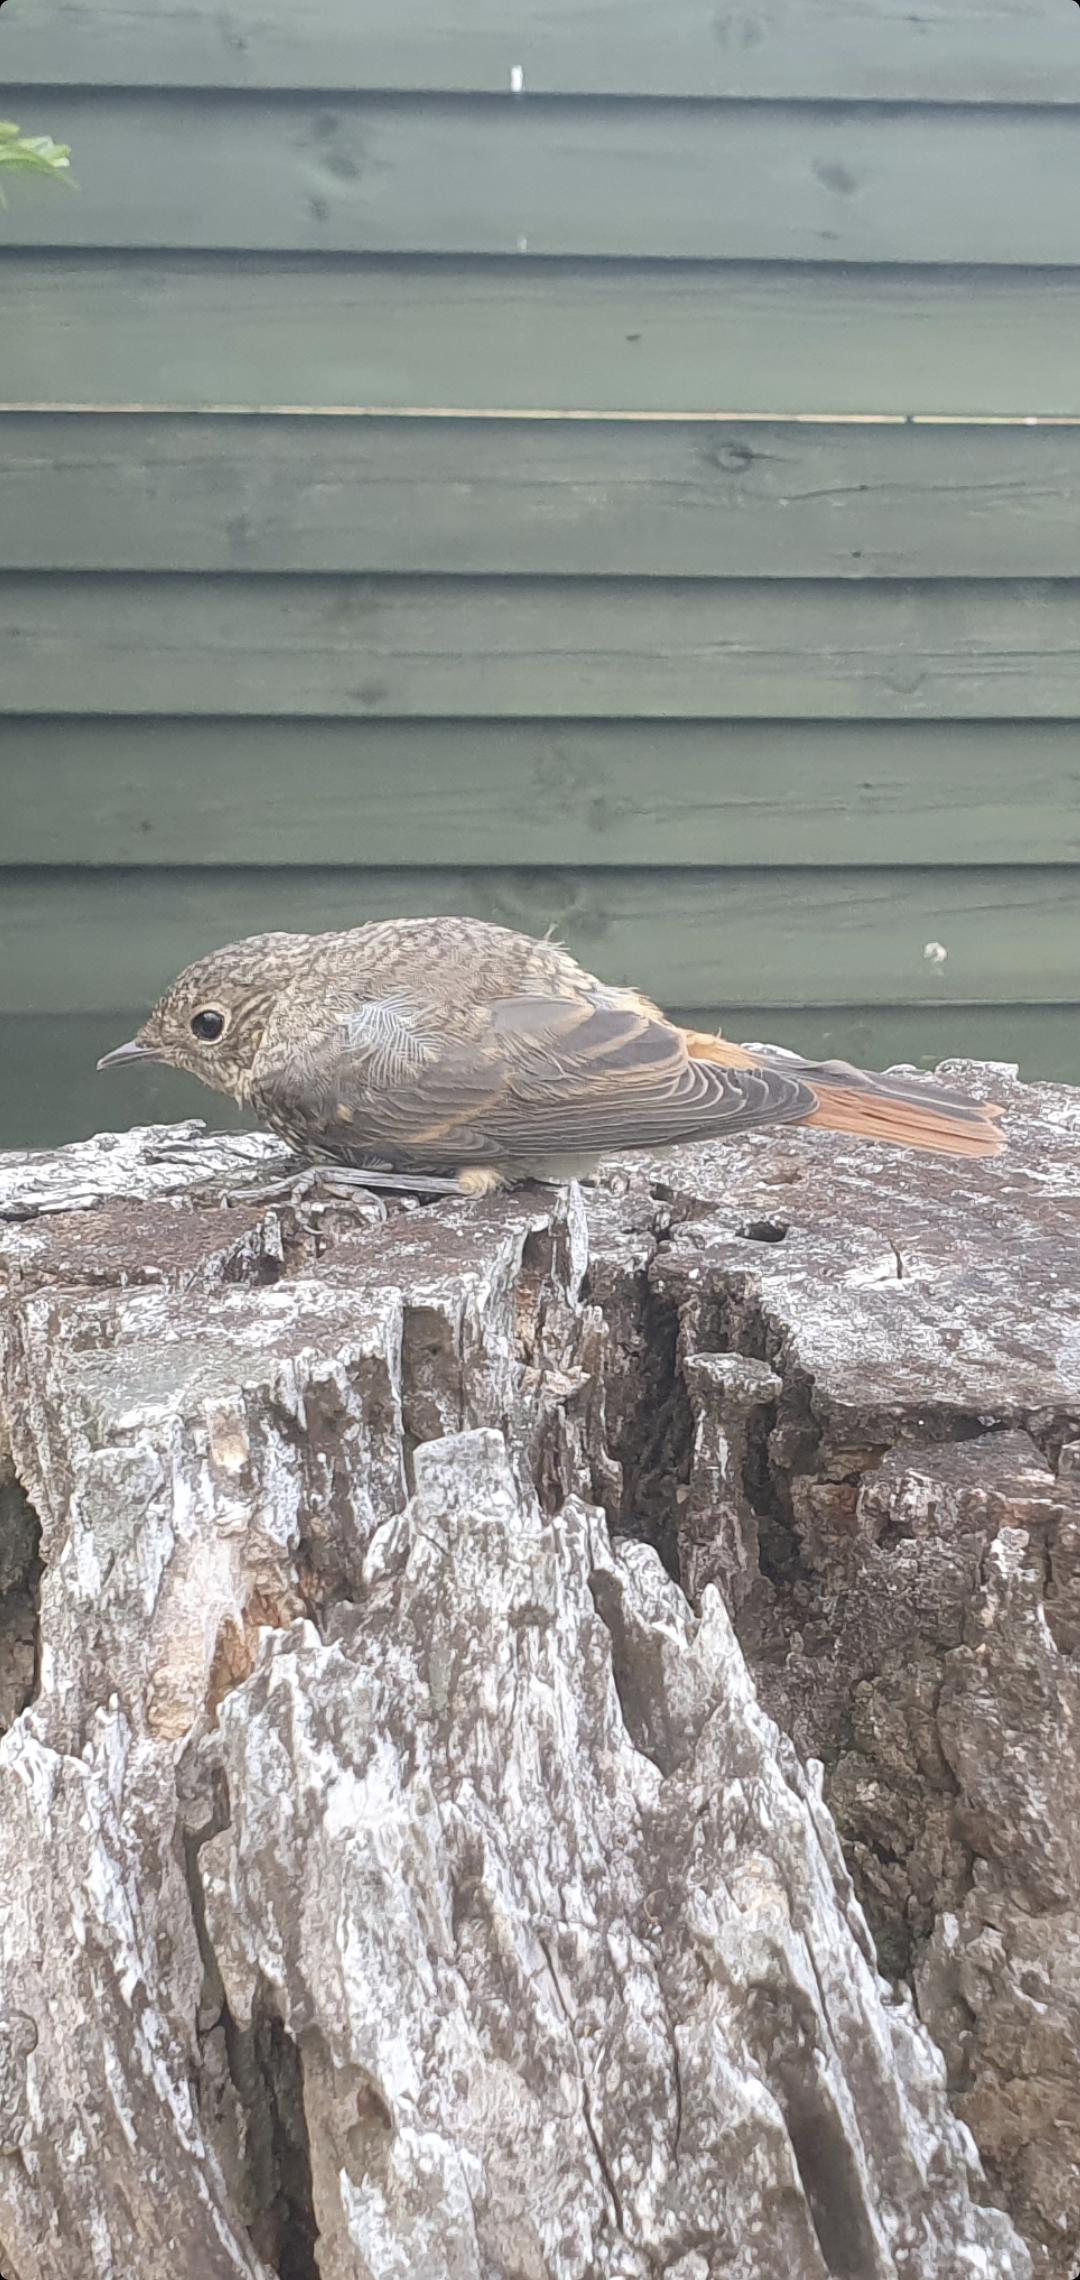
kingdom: Animalia
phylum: Chordata
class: Aves
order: Passeriformes
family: Muscicapidae
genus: Phoenicurus
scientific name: Phoenicurus phoenicurus
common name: Rødstjert
